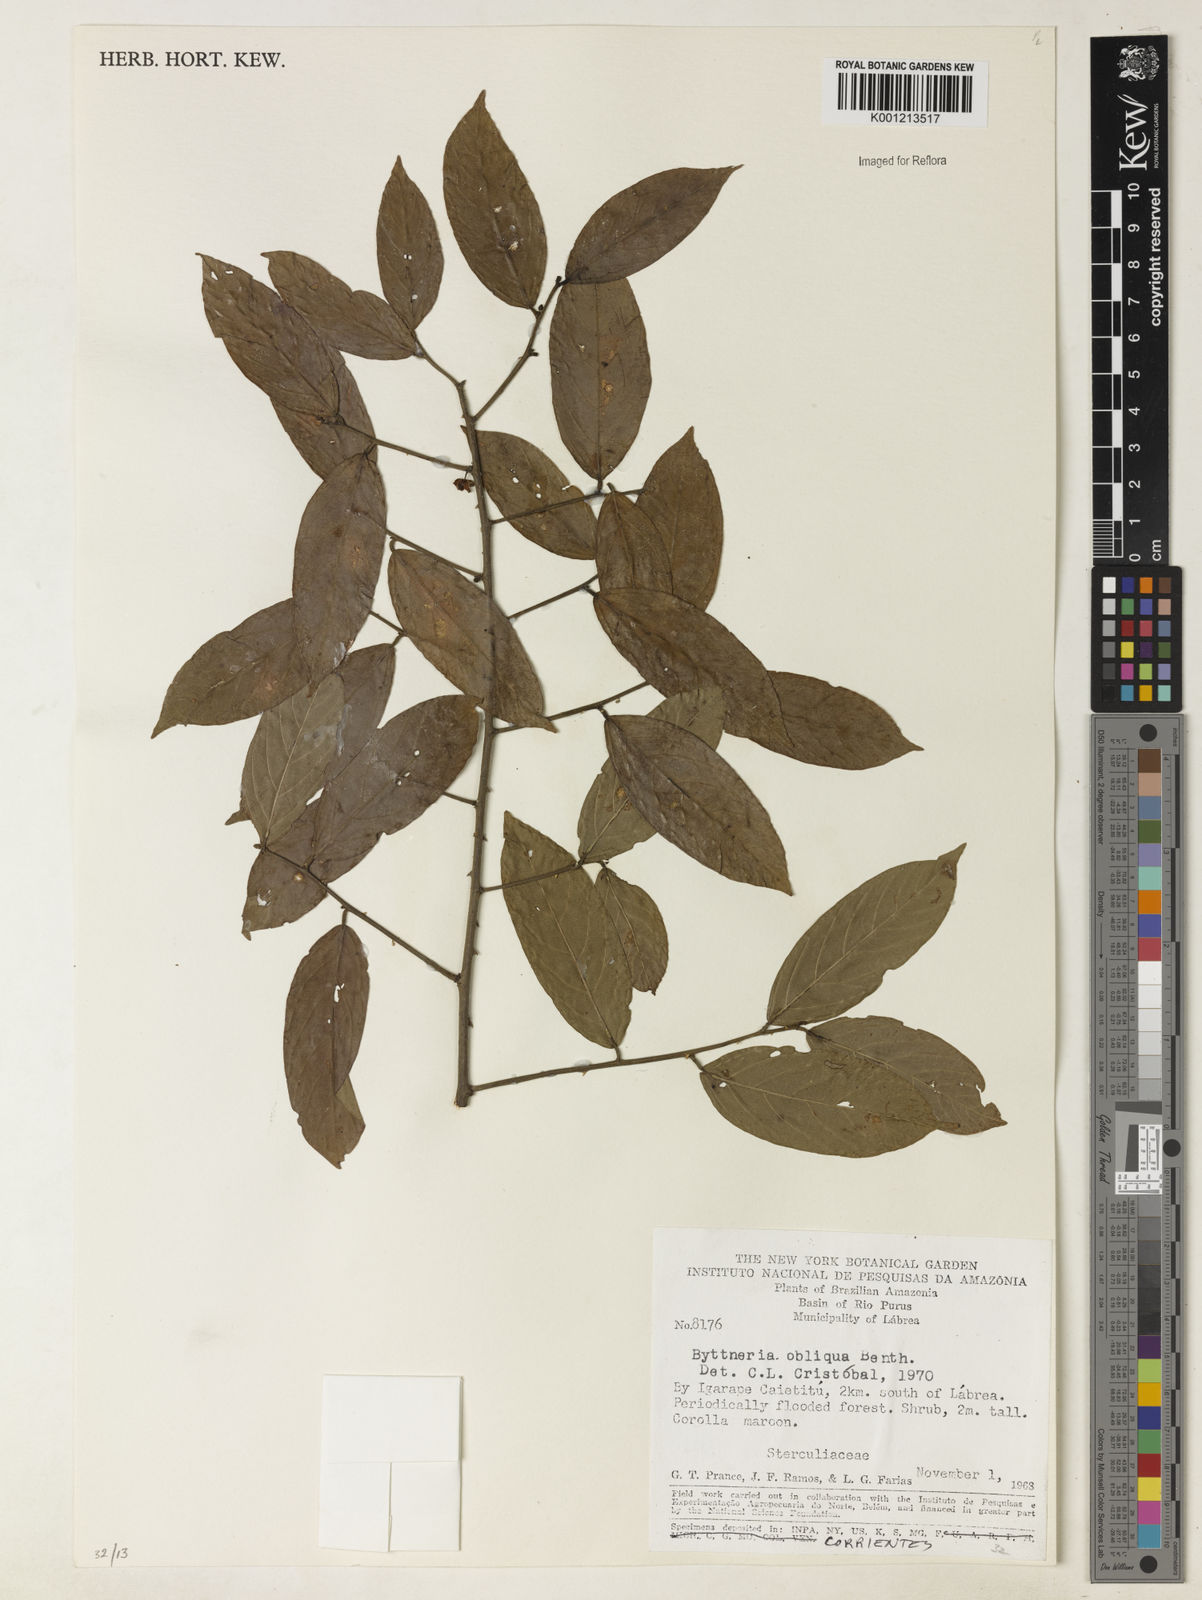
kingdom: Plantae
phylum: Tracheophyta
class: Magnoliopsida
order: Malvales
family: Malvaceae
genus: Byttneria
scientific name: Byttneria obliqua
